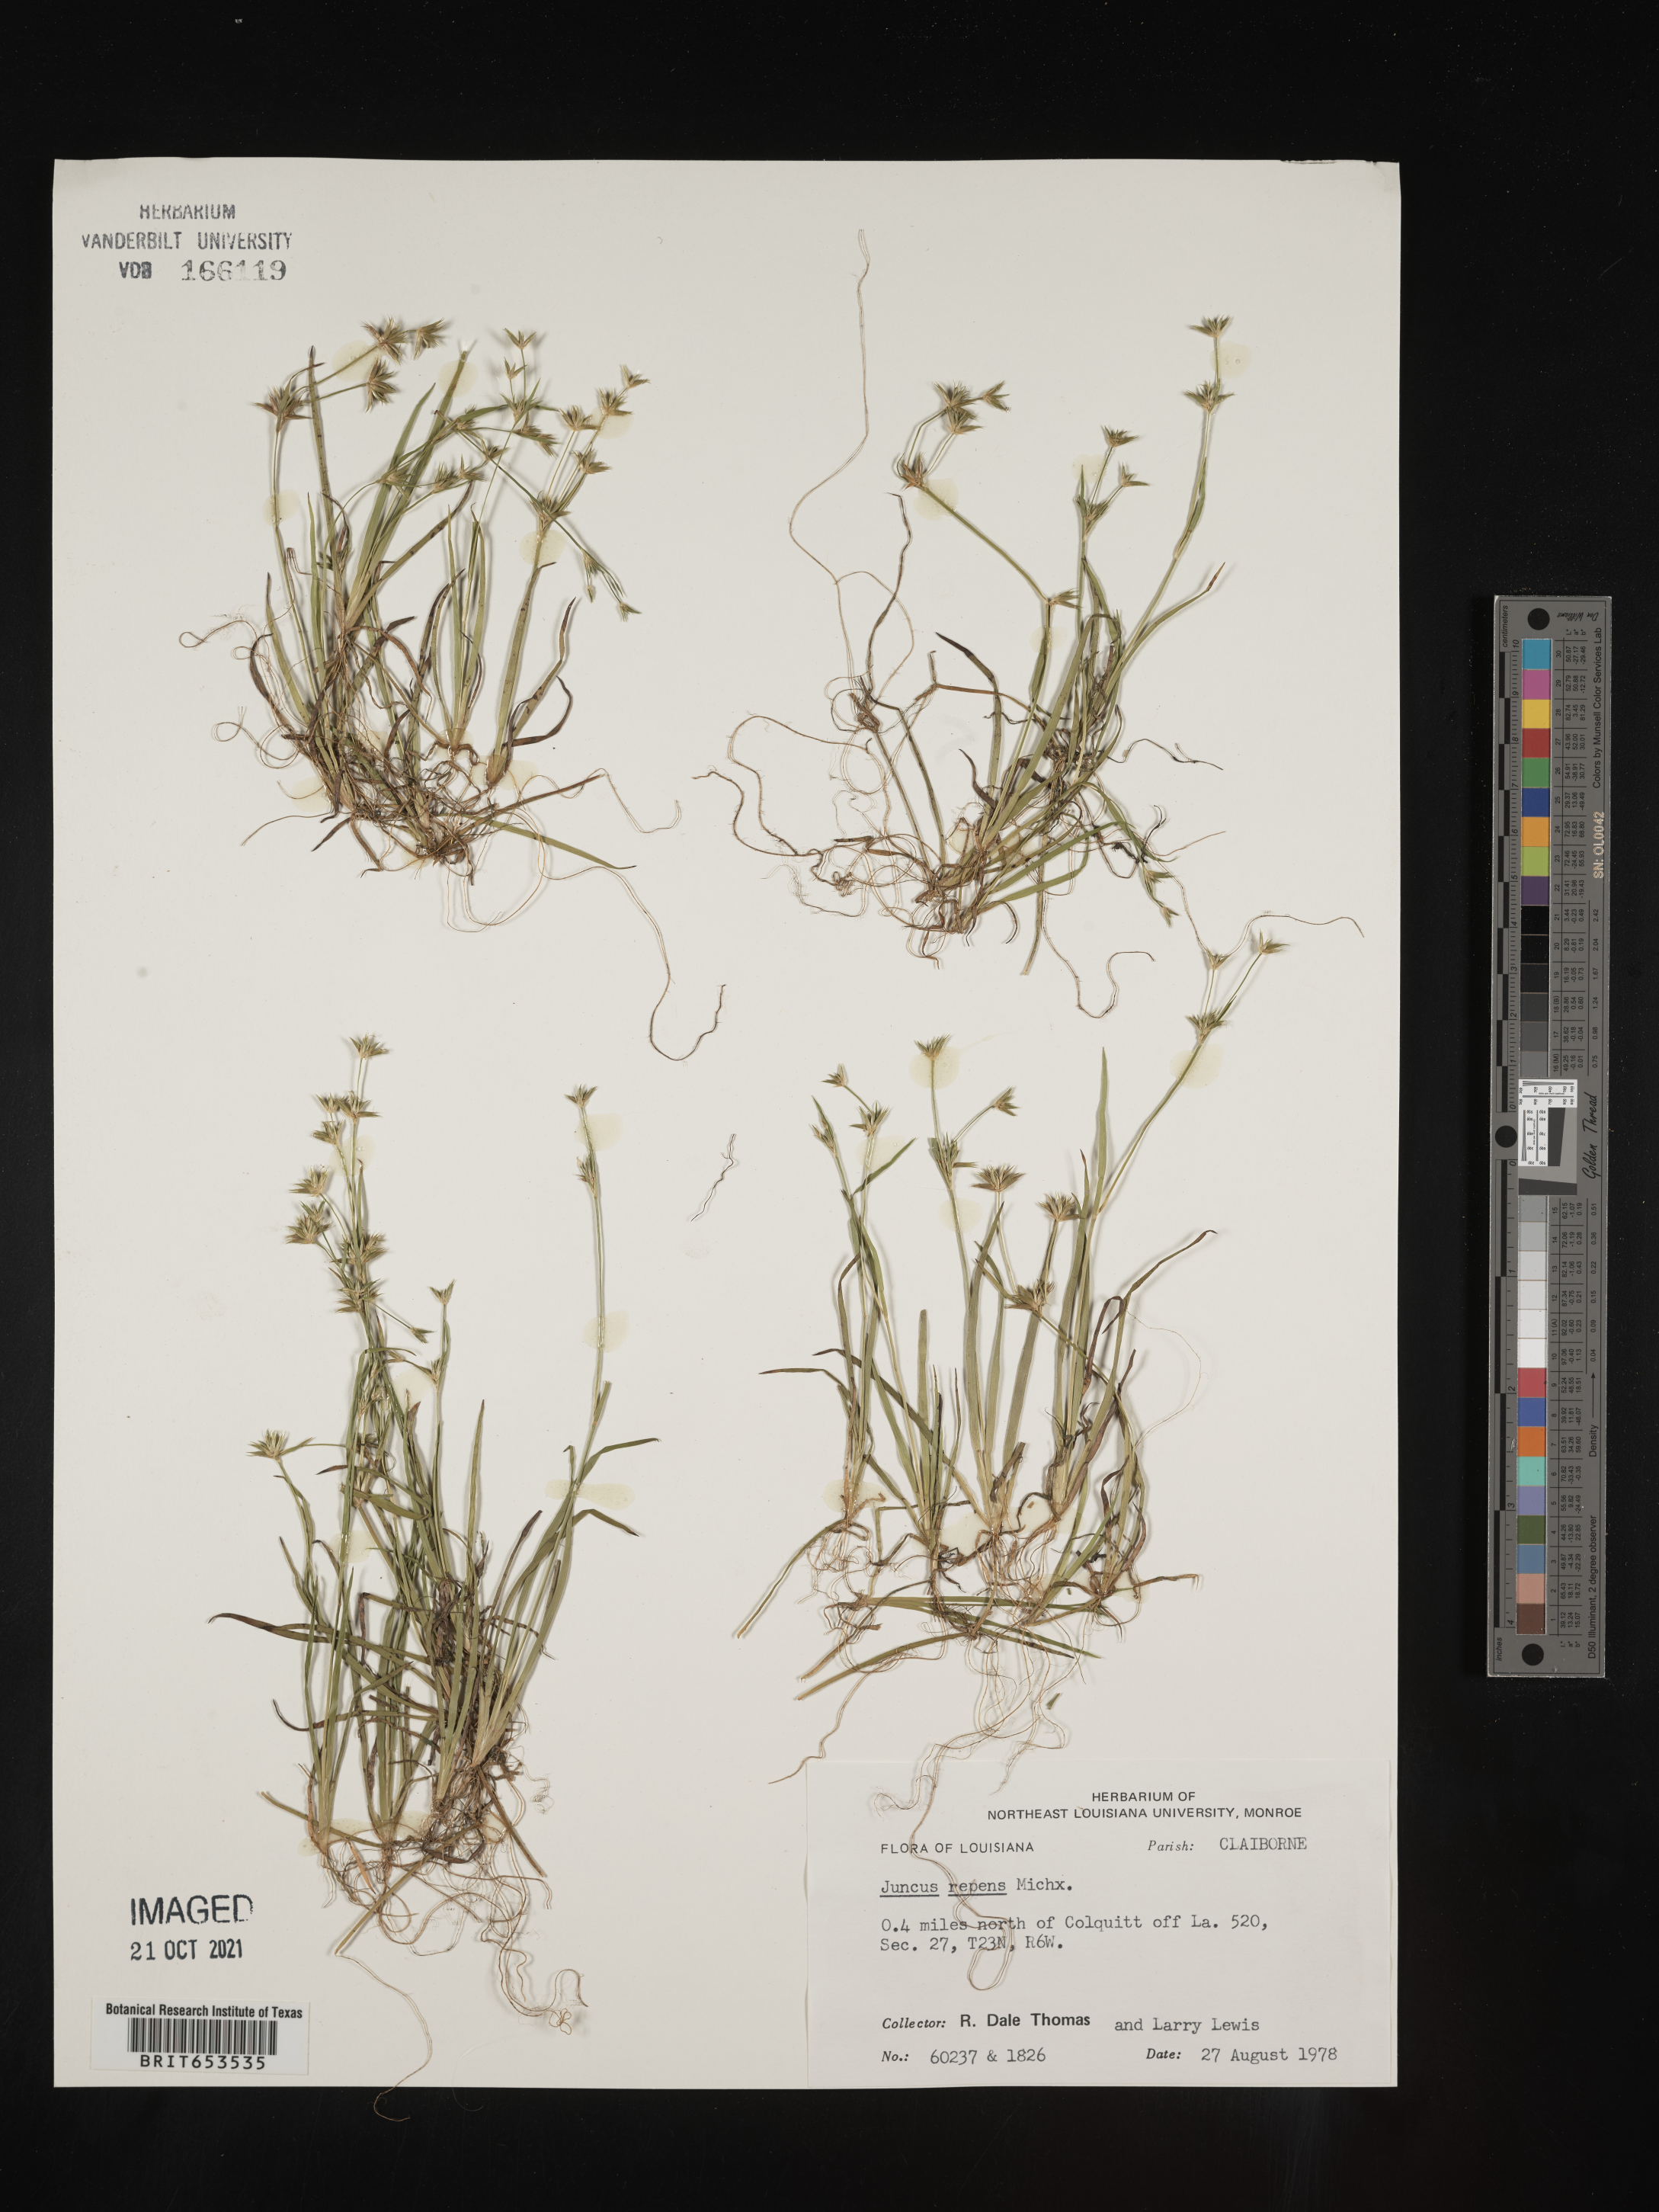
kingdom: Plantae
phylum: Tracheophyta
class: Liliopsida
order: Poales
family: Juncaceae
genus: Juncus
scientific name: Juncus repens
